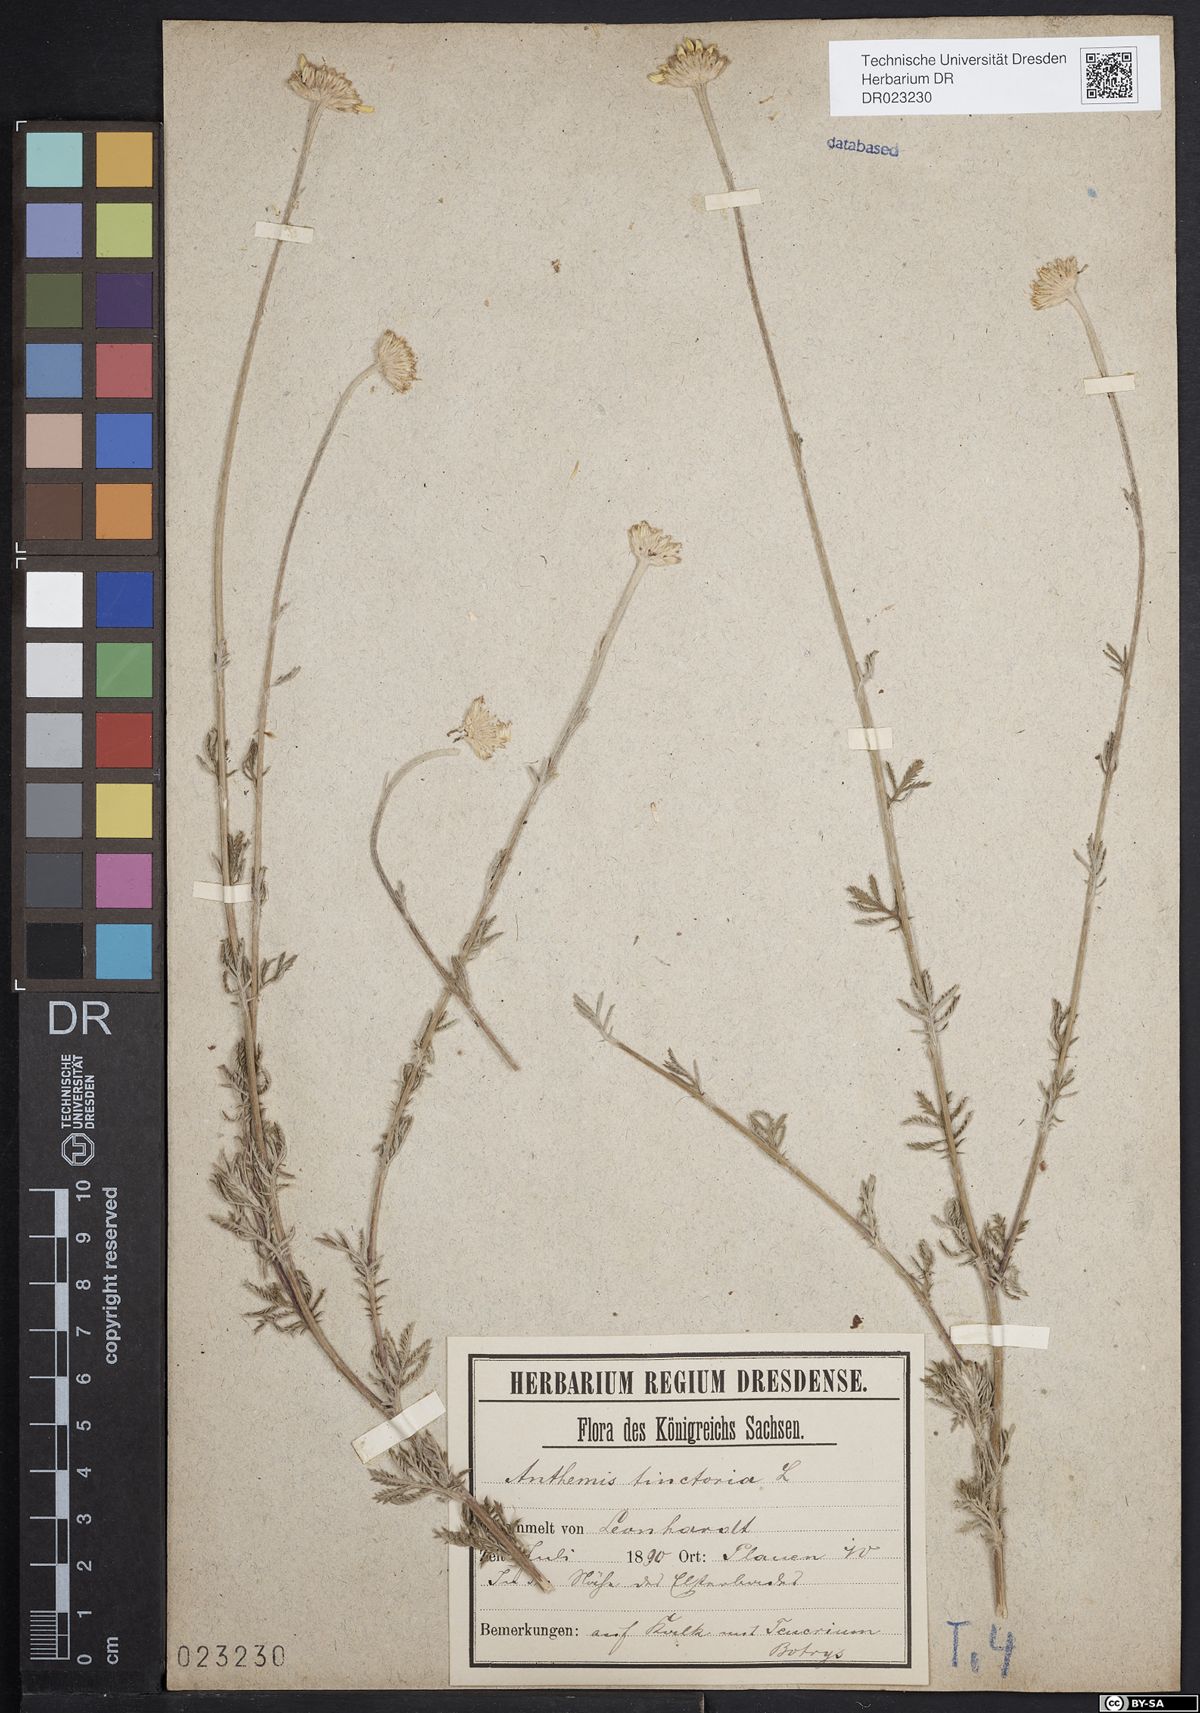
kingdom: Plantae
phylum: Tracheophyta
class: Magnoliopsida
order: Asterales
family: Asteraceae
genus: Cota
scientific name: Cota tinctoria
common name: Golden chamomile
